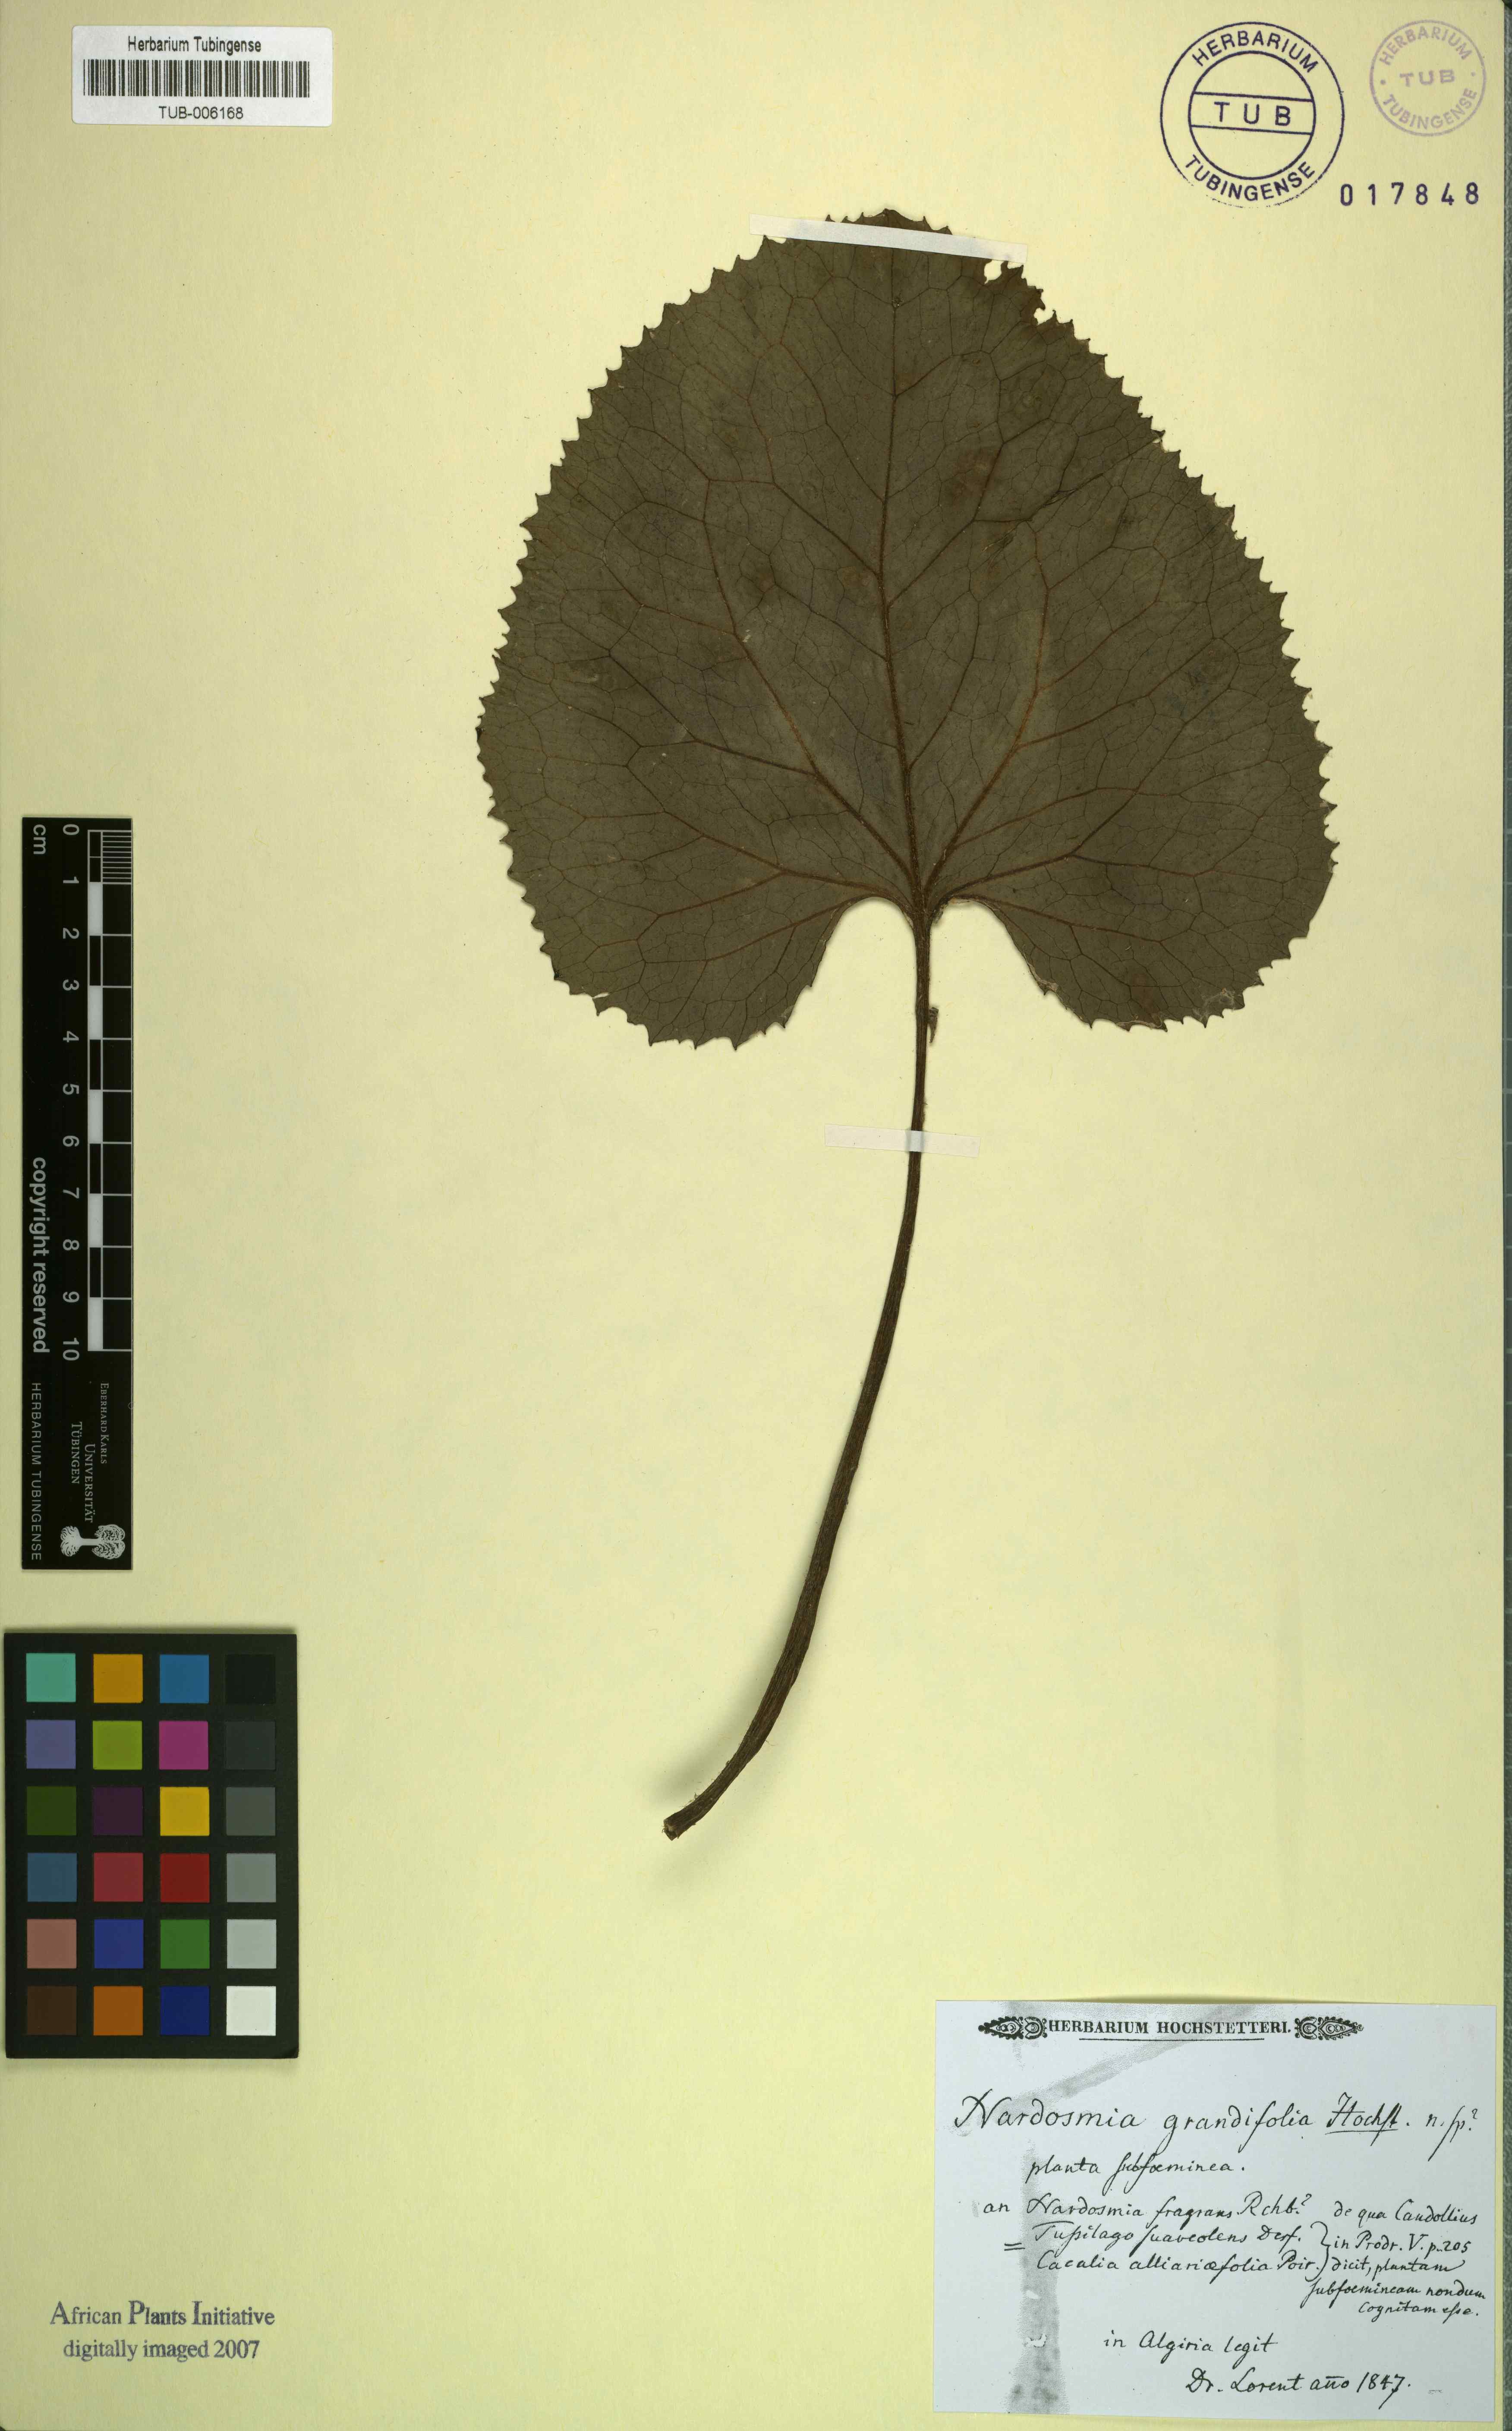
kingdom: Plantae
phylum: Tracheophyta
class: Magnoliopsida
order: Asterales
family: Asteraceae
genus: Petasites
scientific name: Petasites pyrenaicus
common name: Winter heliotrope
